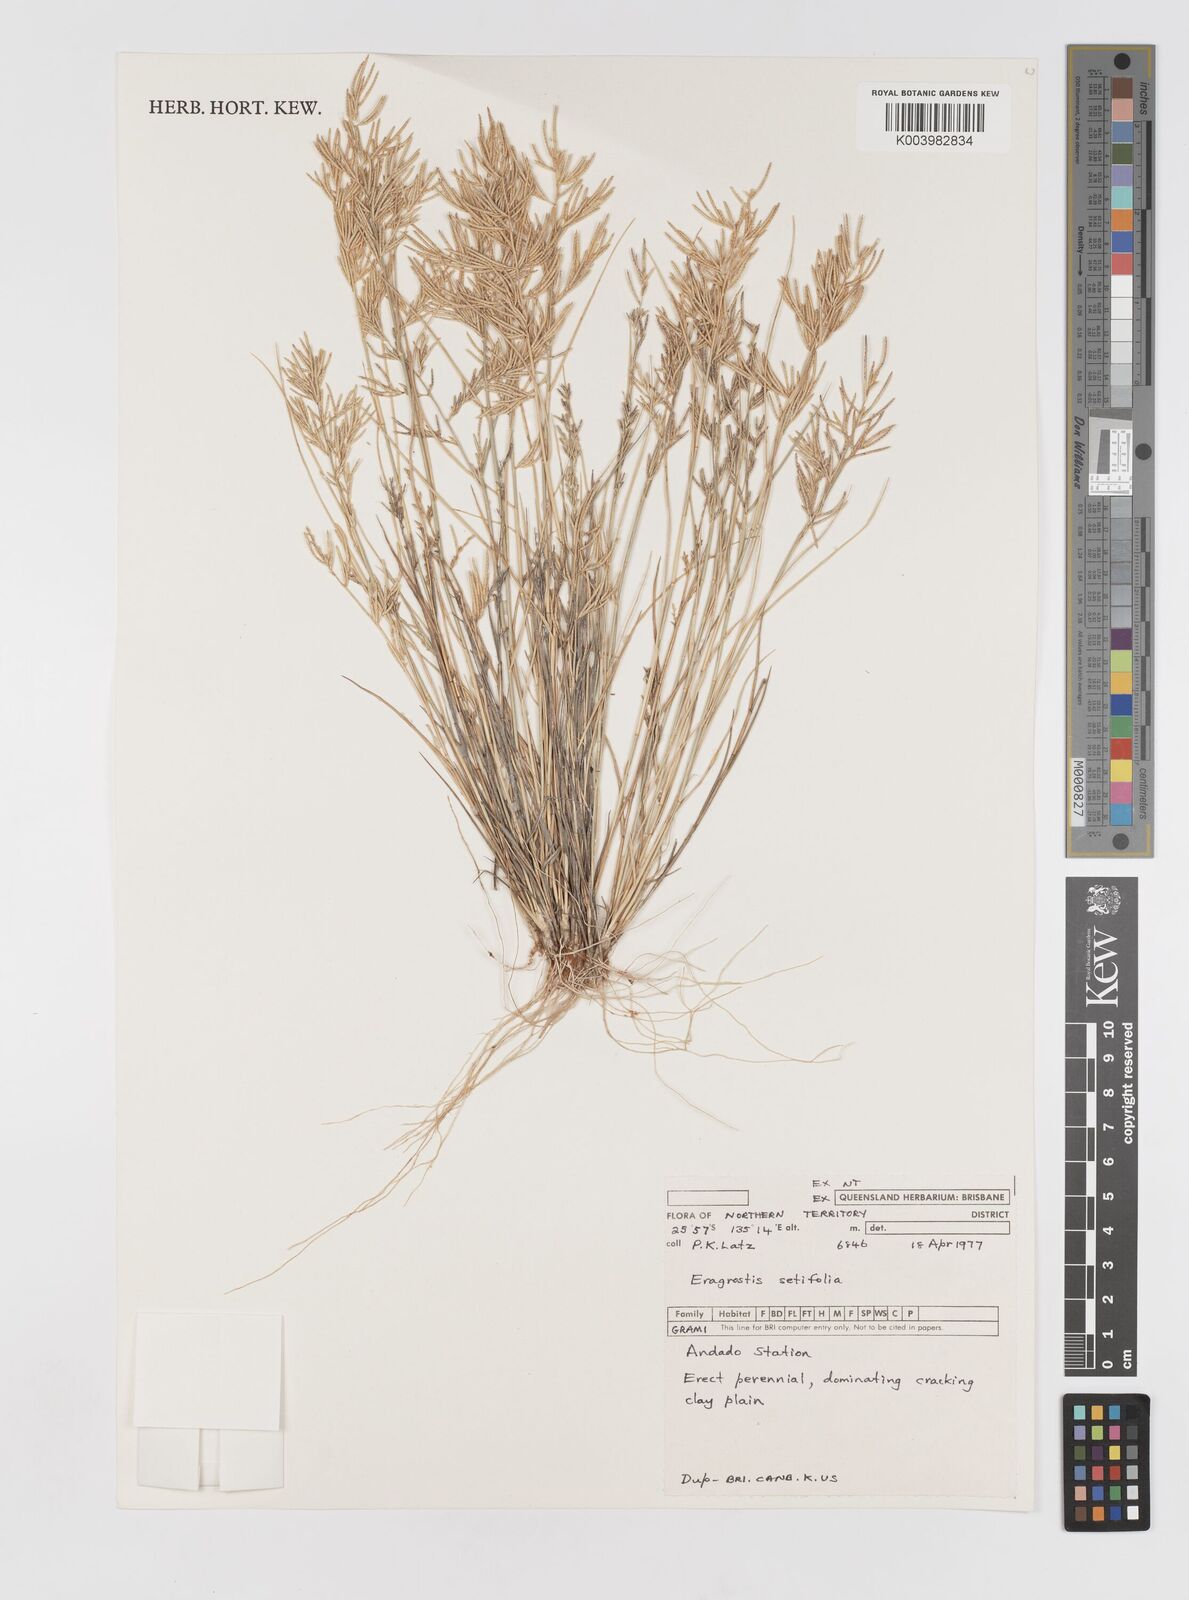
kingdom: Plantae
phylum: Tracheophyta
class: Liliopsida
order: Poales
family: Poaceae
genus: Eragrostis
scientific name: Eragrostis setifolia
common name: Bristleleaf lovegrass
